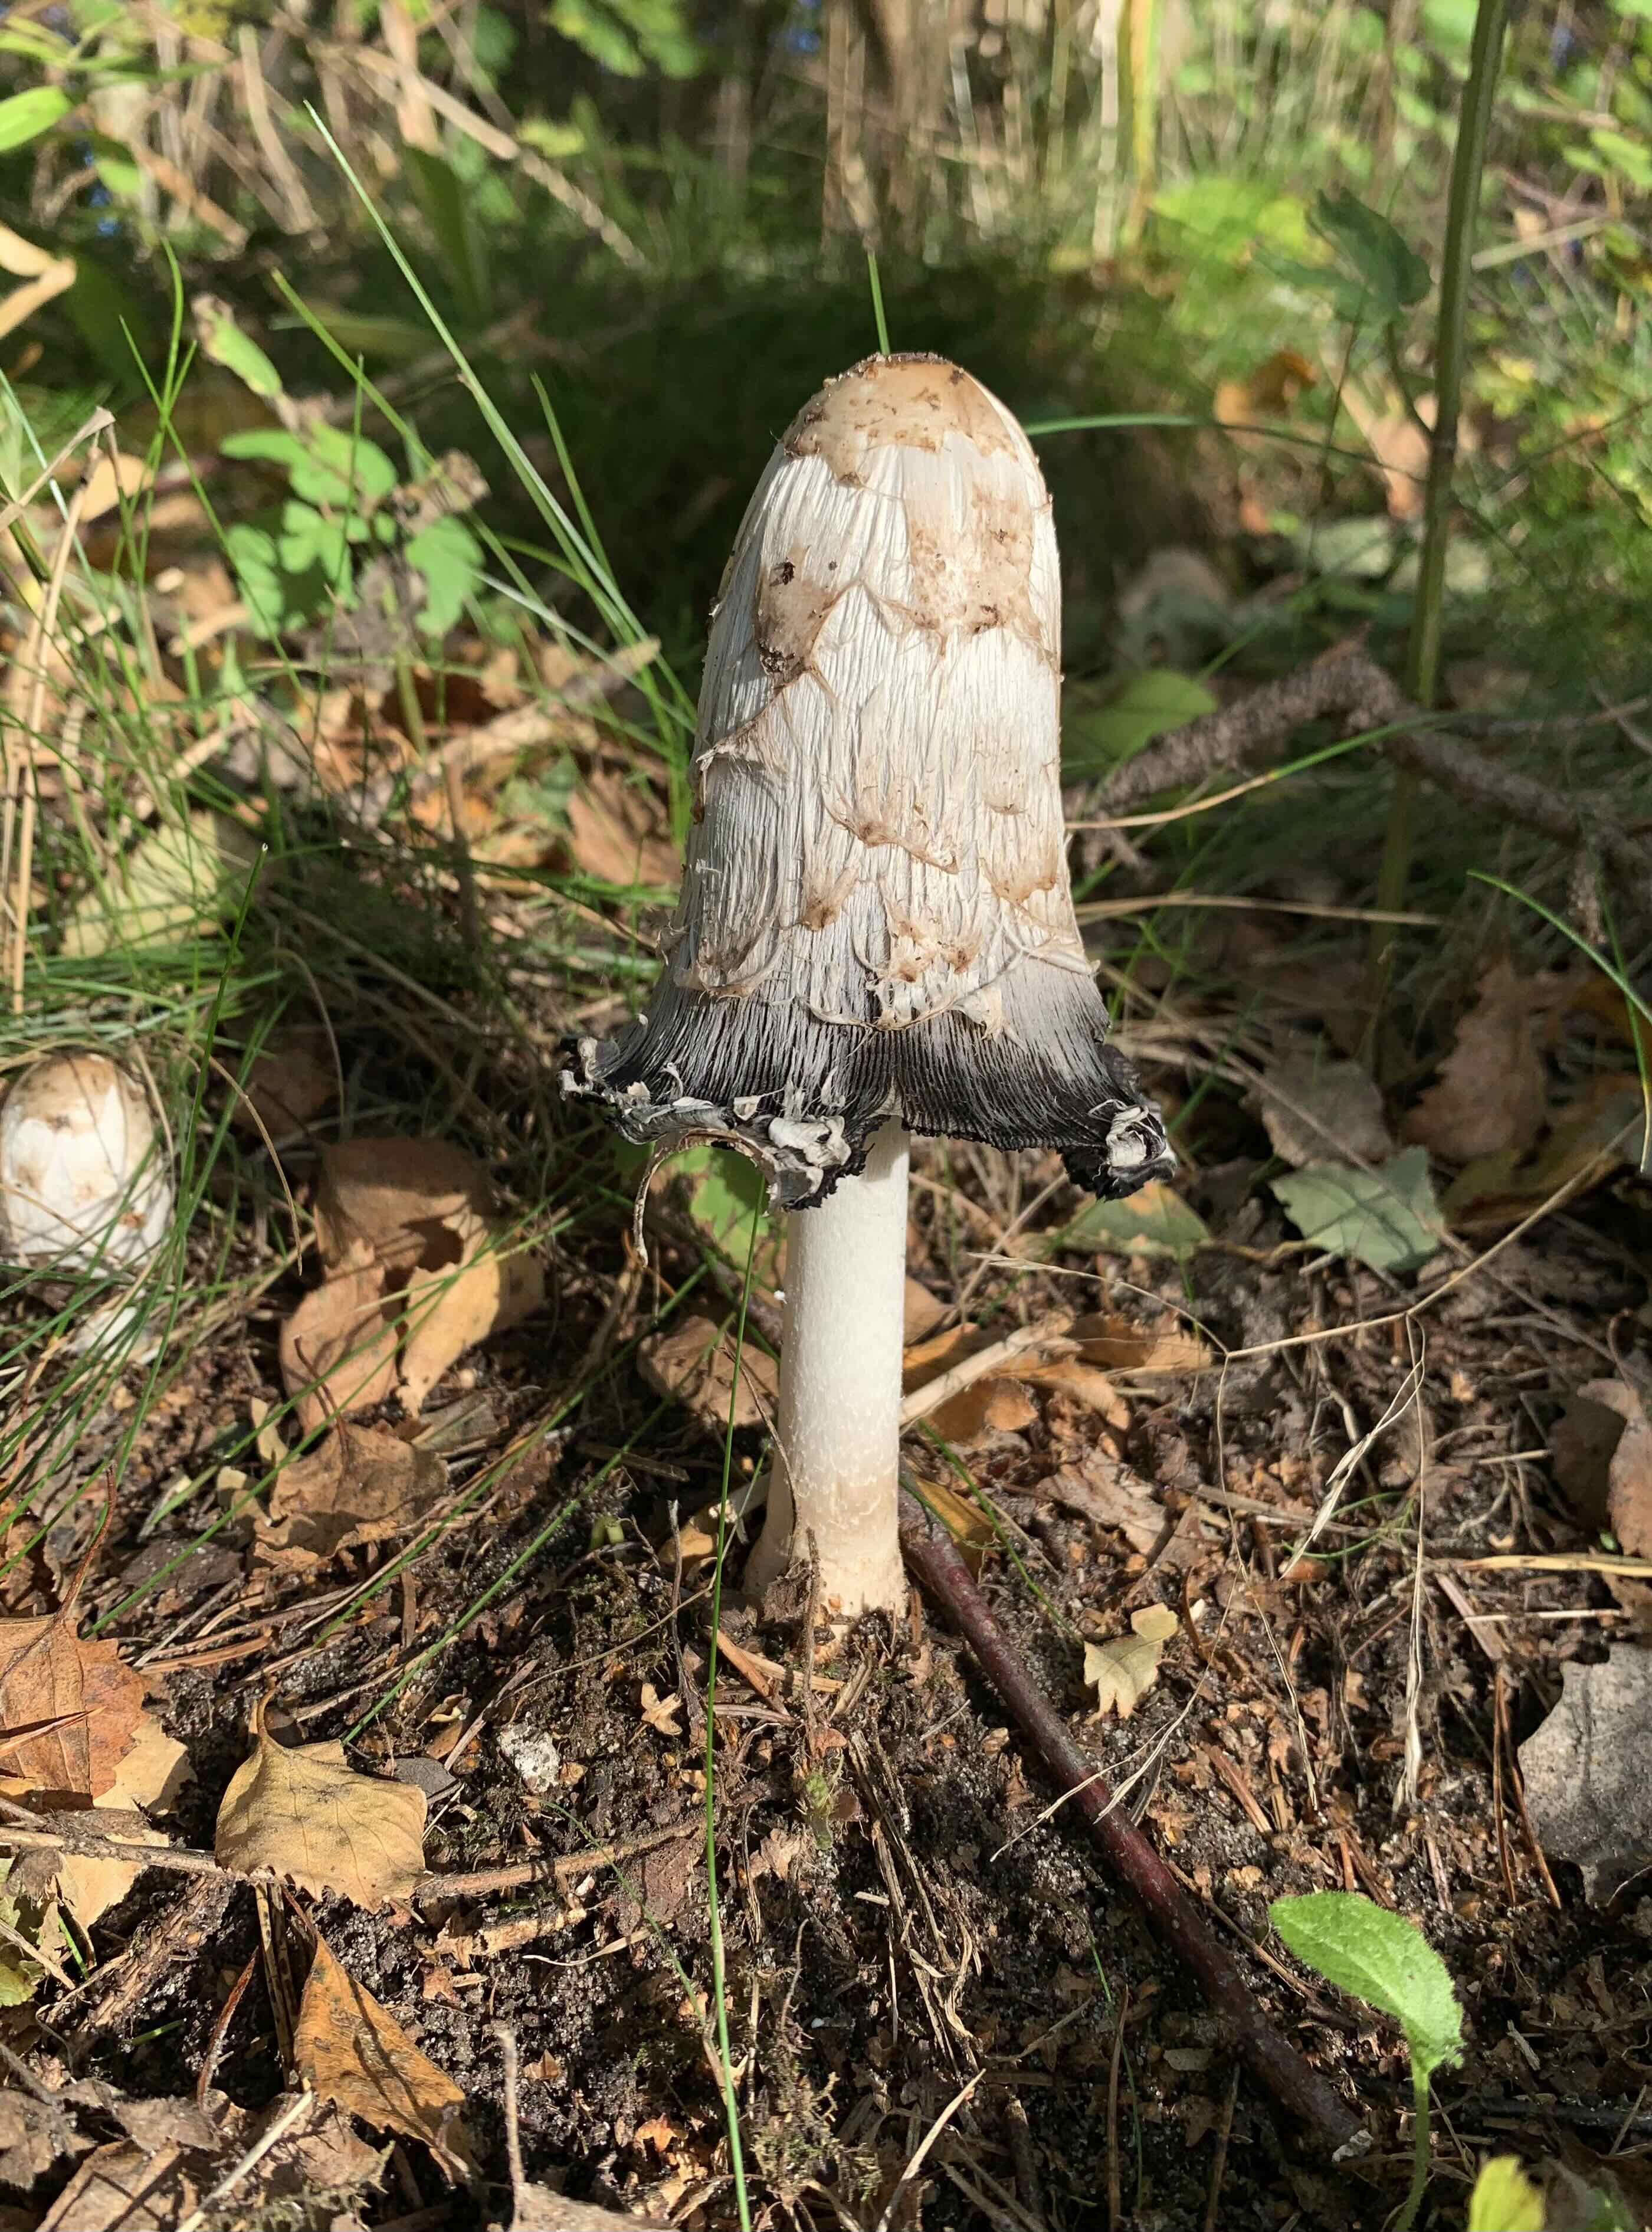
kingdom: Fungi
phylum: Basidiomycota
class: Agaricomycetes
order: Agaricales
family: Agaricaceae
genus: Coprinus
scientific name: Coprinus comatus
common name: stor parykhat
